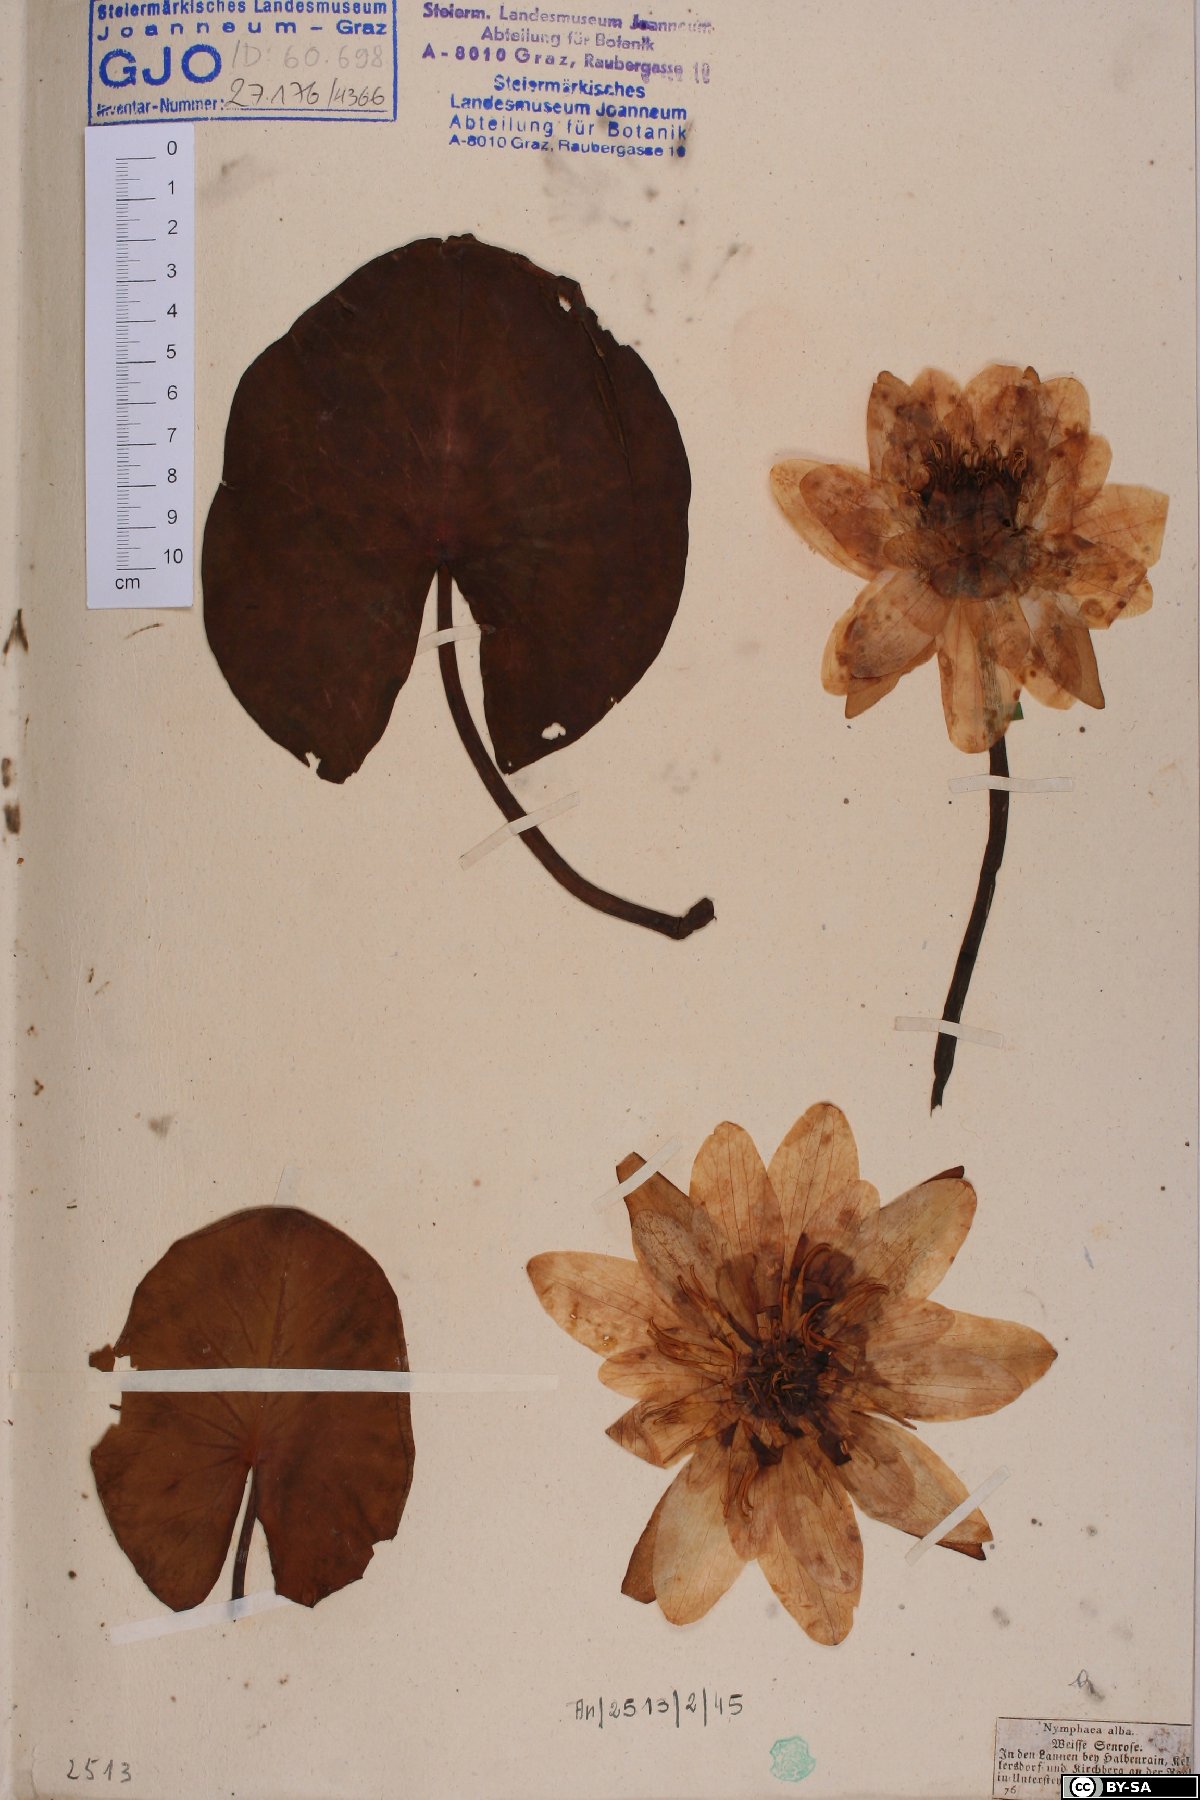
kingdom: Plantae
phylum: Tracheophyta
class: Magnoliopsida
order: Nymphaeales
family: Nymphaeaceae
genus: Nymphaea
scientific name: Nymphaea alba
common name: White water-lily
